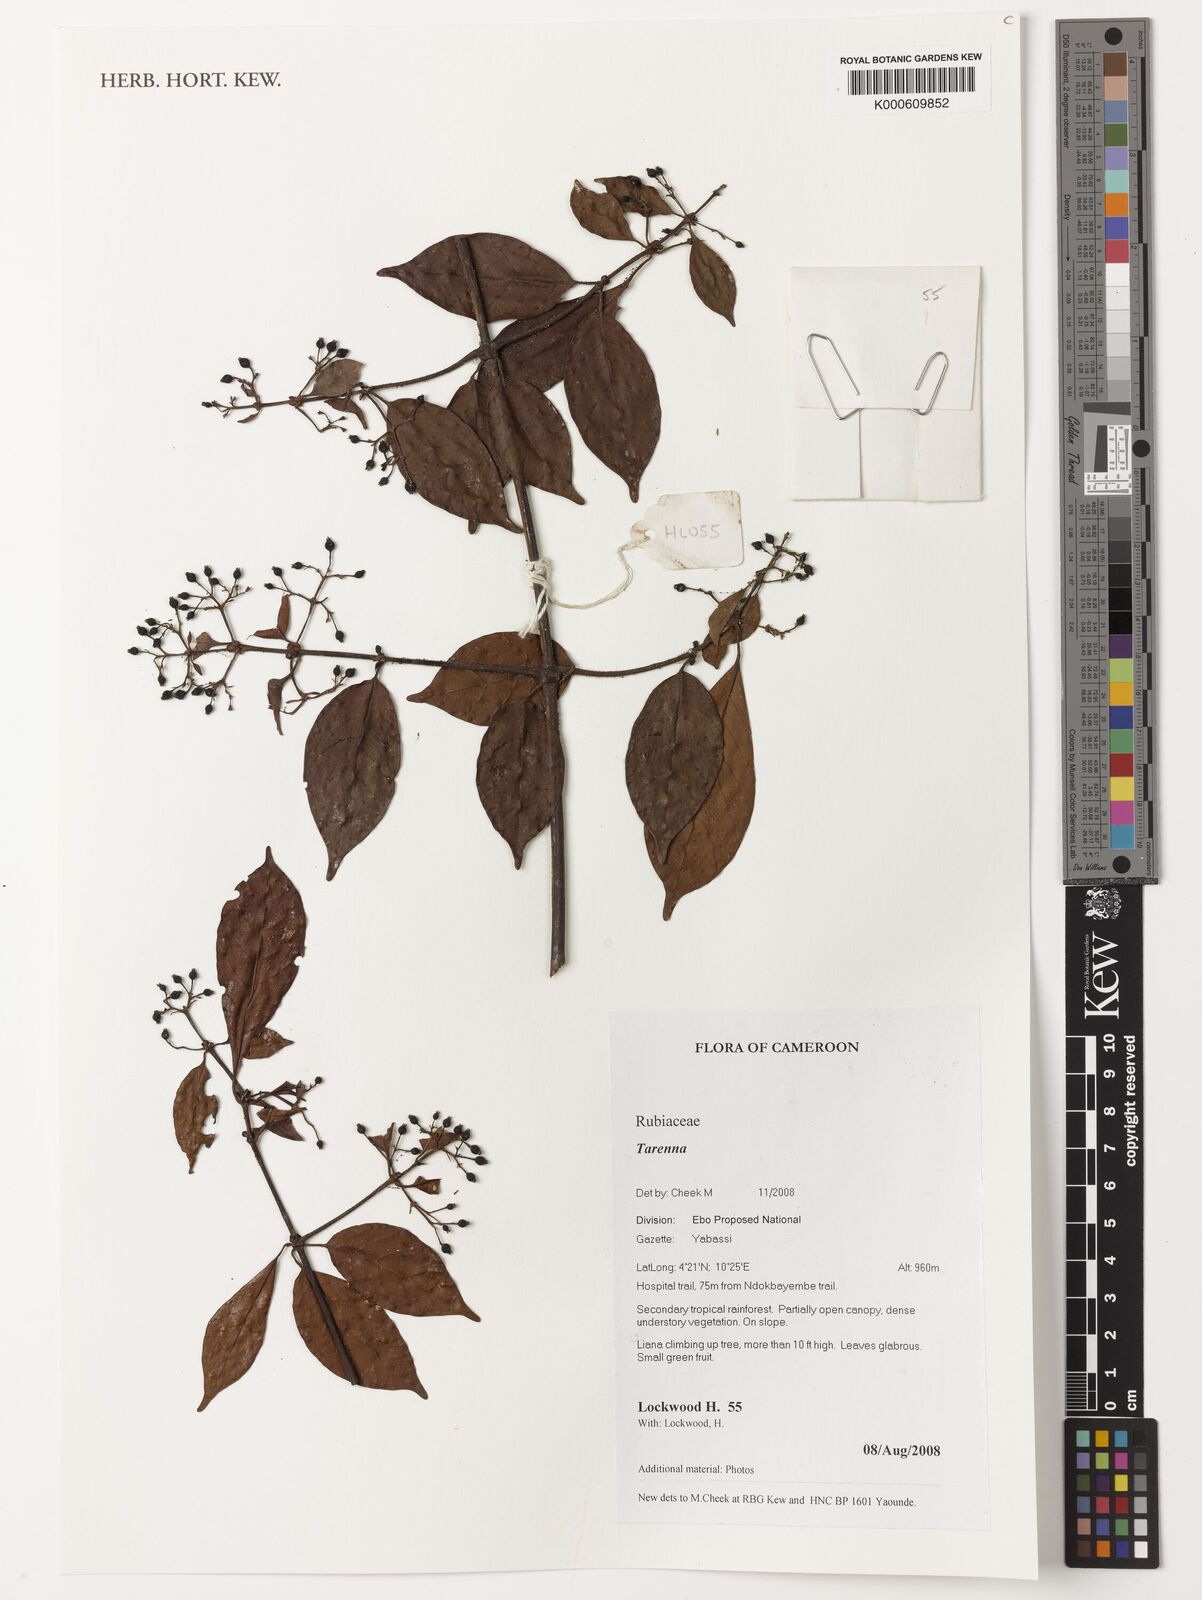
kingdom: Plantae
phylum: Tracheophyta
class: Magnoliopsida
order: Gentianales
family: Rubiaceae
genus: Tarenna
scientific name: Tarenna
